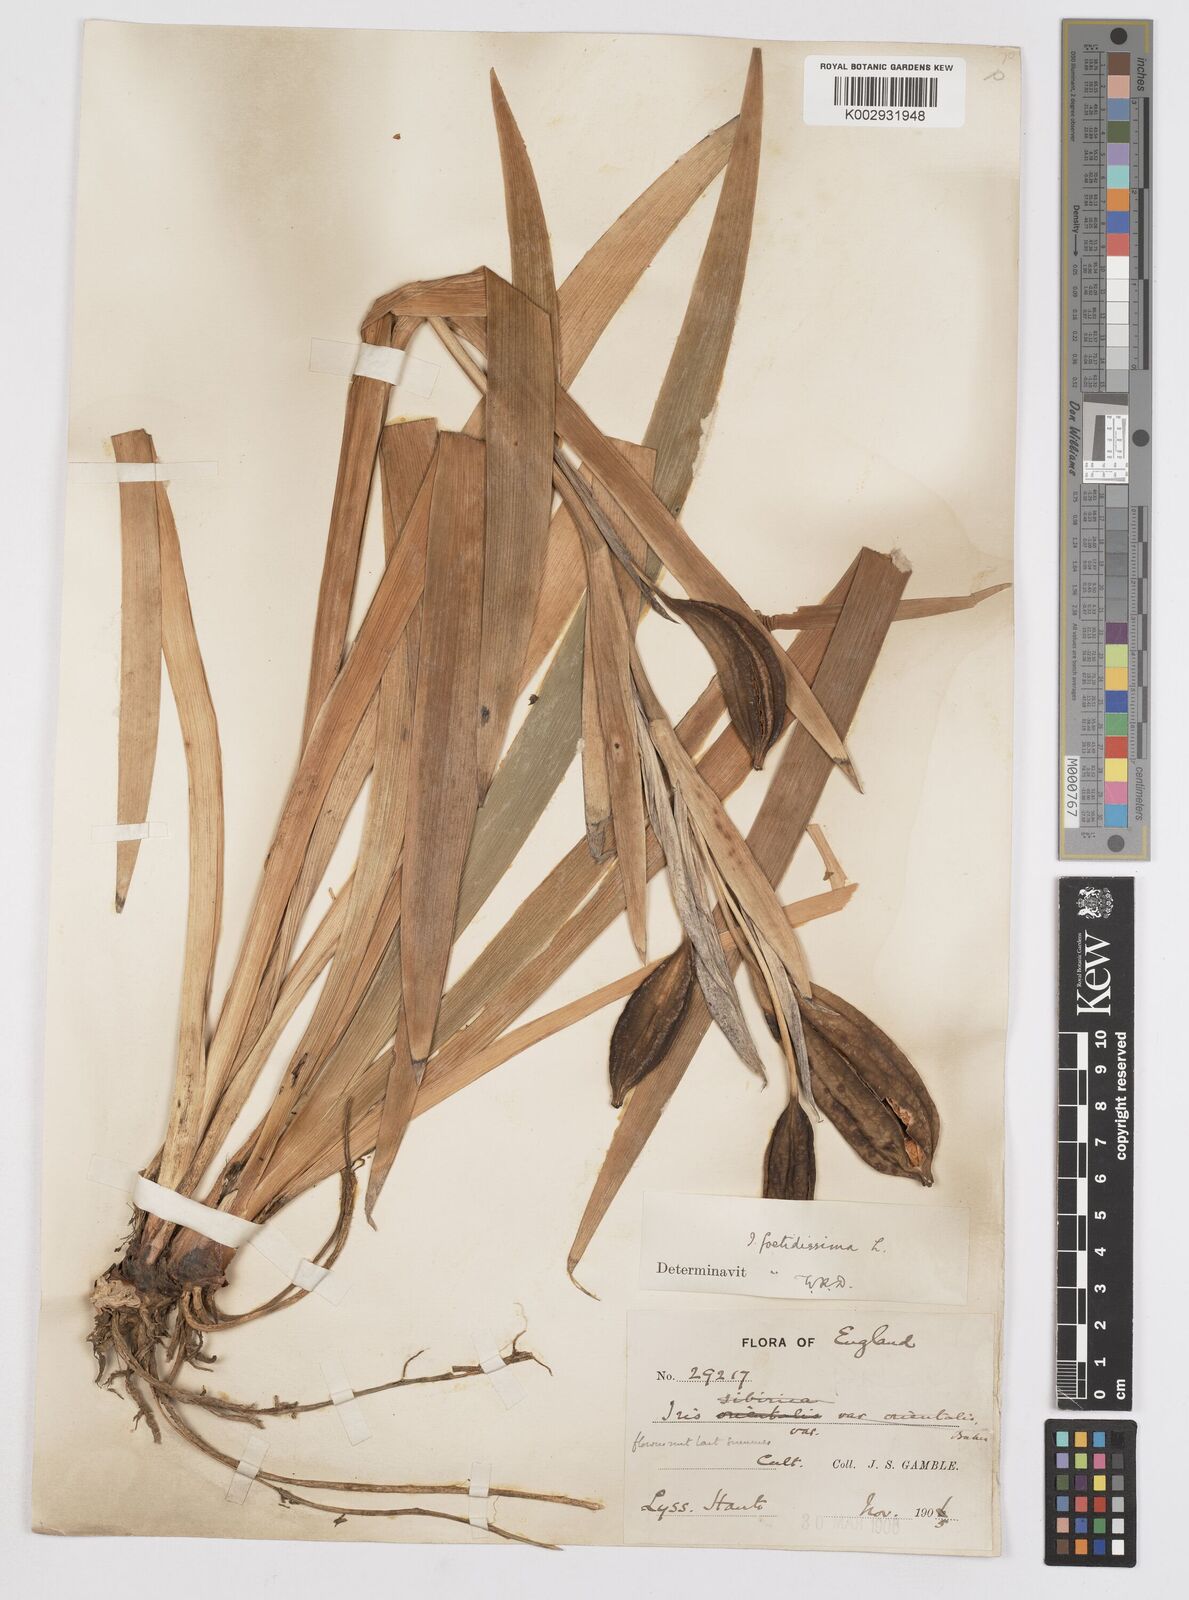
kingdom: Plantae
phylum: Tracheophyta
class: Liliopsida
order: Asparagales
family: Iridaceae
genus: Iris
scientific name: Iris foetidissima
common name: Stinking iris
